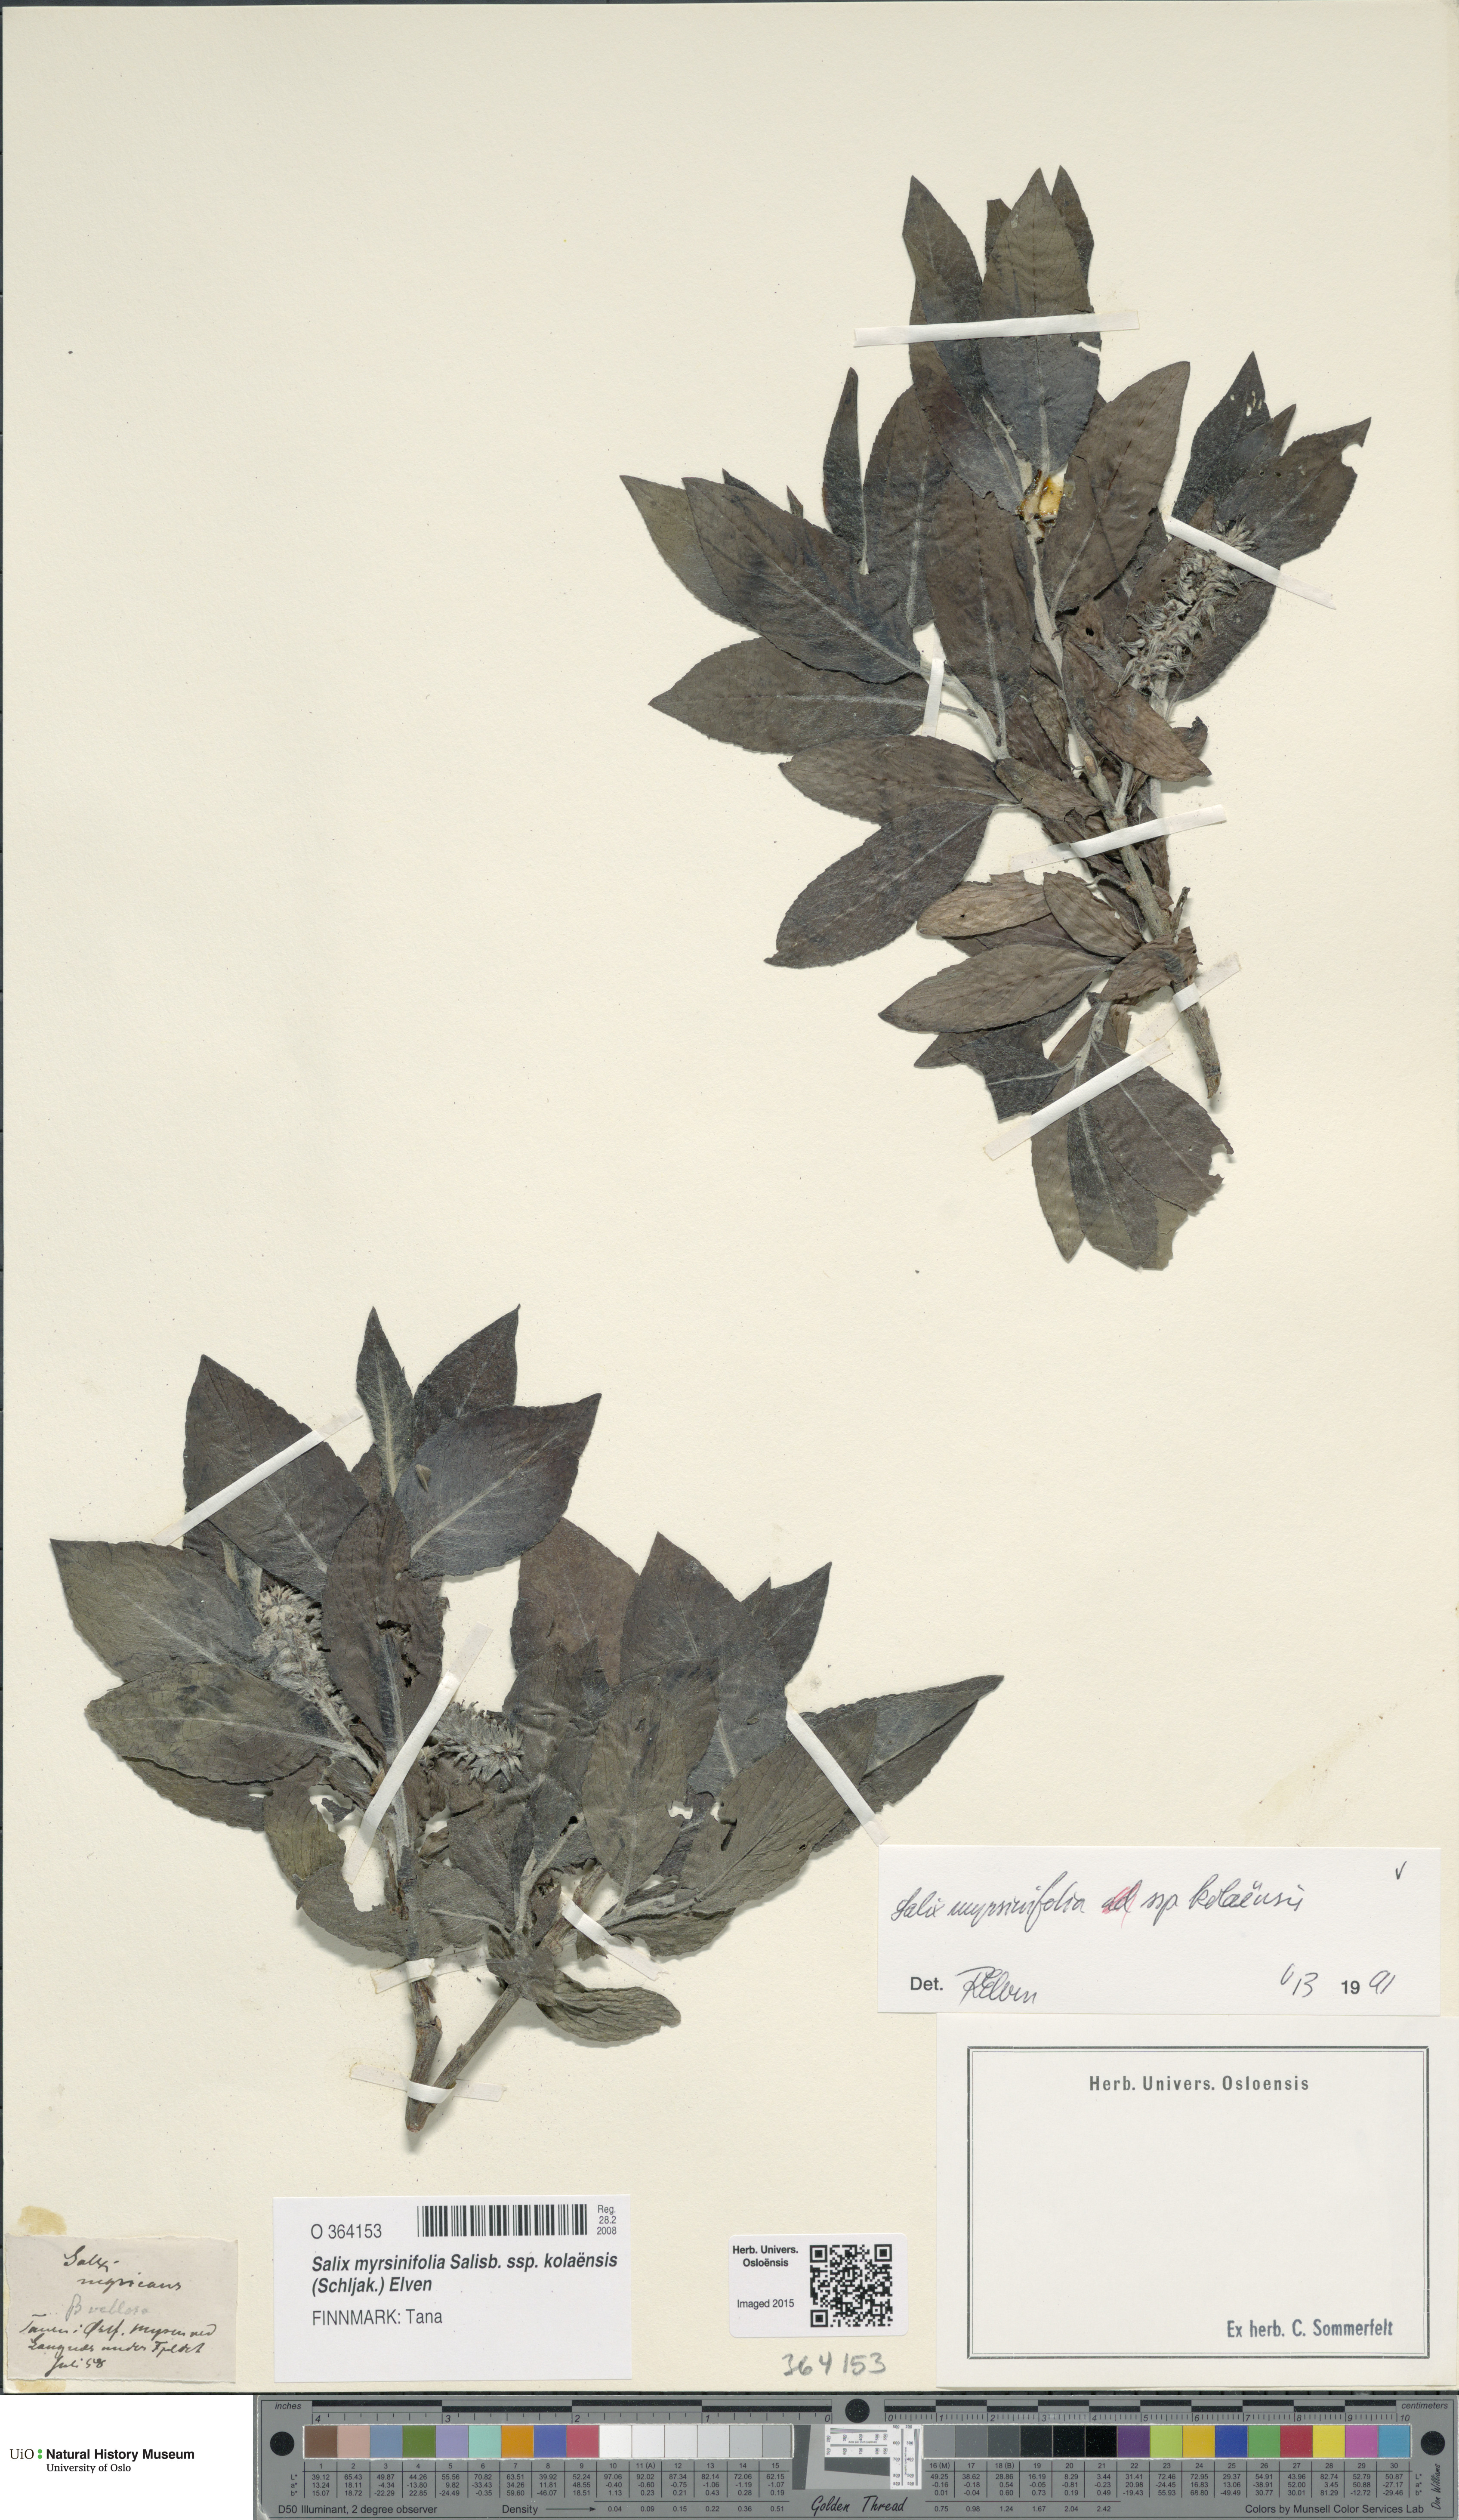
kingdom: Plantae
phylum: Tracheophyta
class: Magnoliopsida
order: Malpighiales
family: Salicaceae
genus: Salix
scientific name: Salix myrsinifolia
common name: Dark-leaved willow
